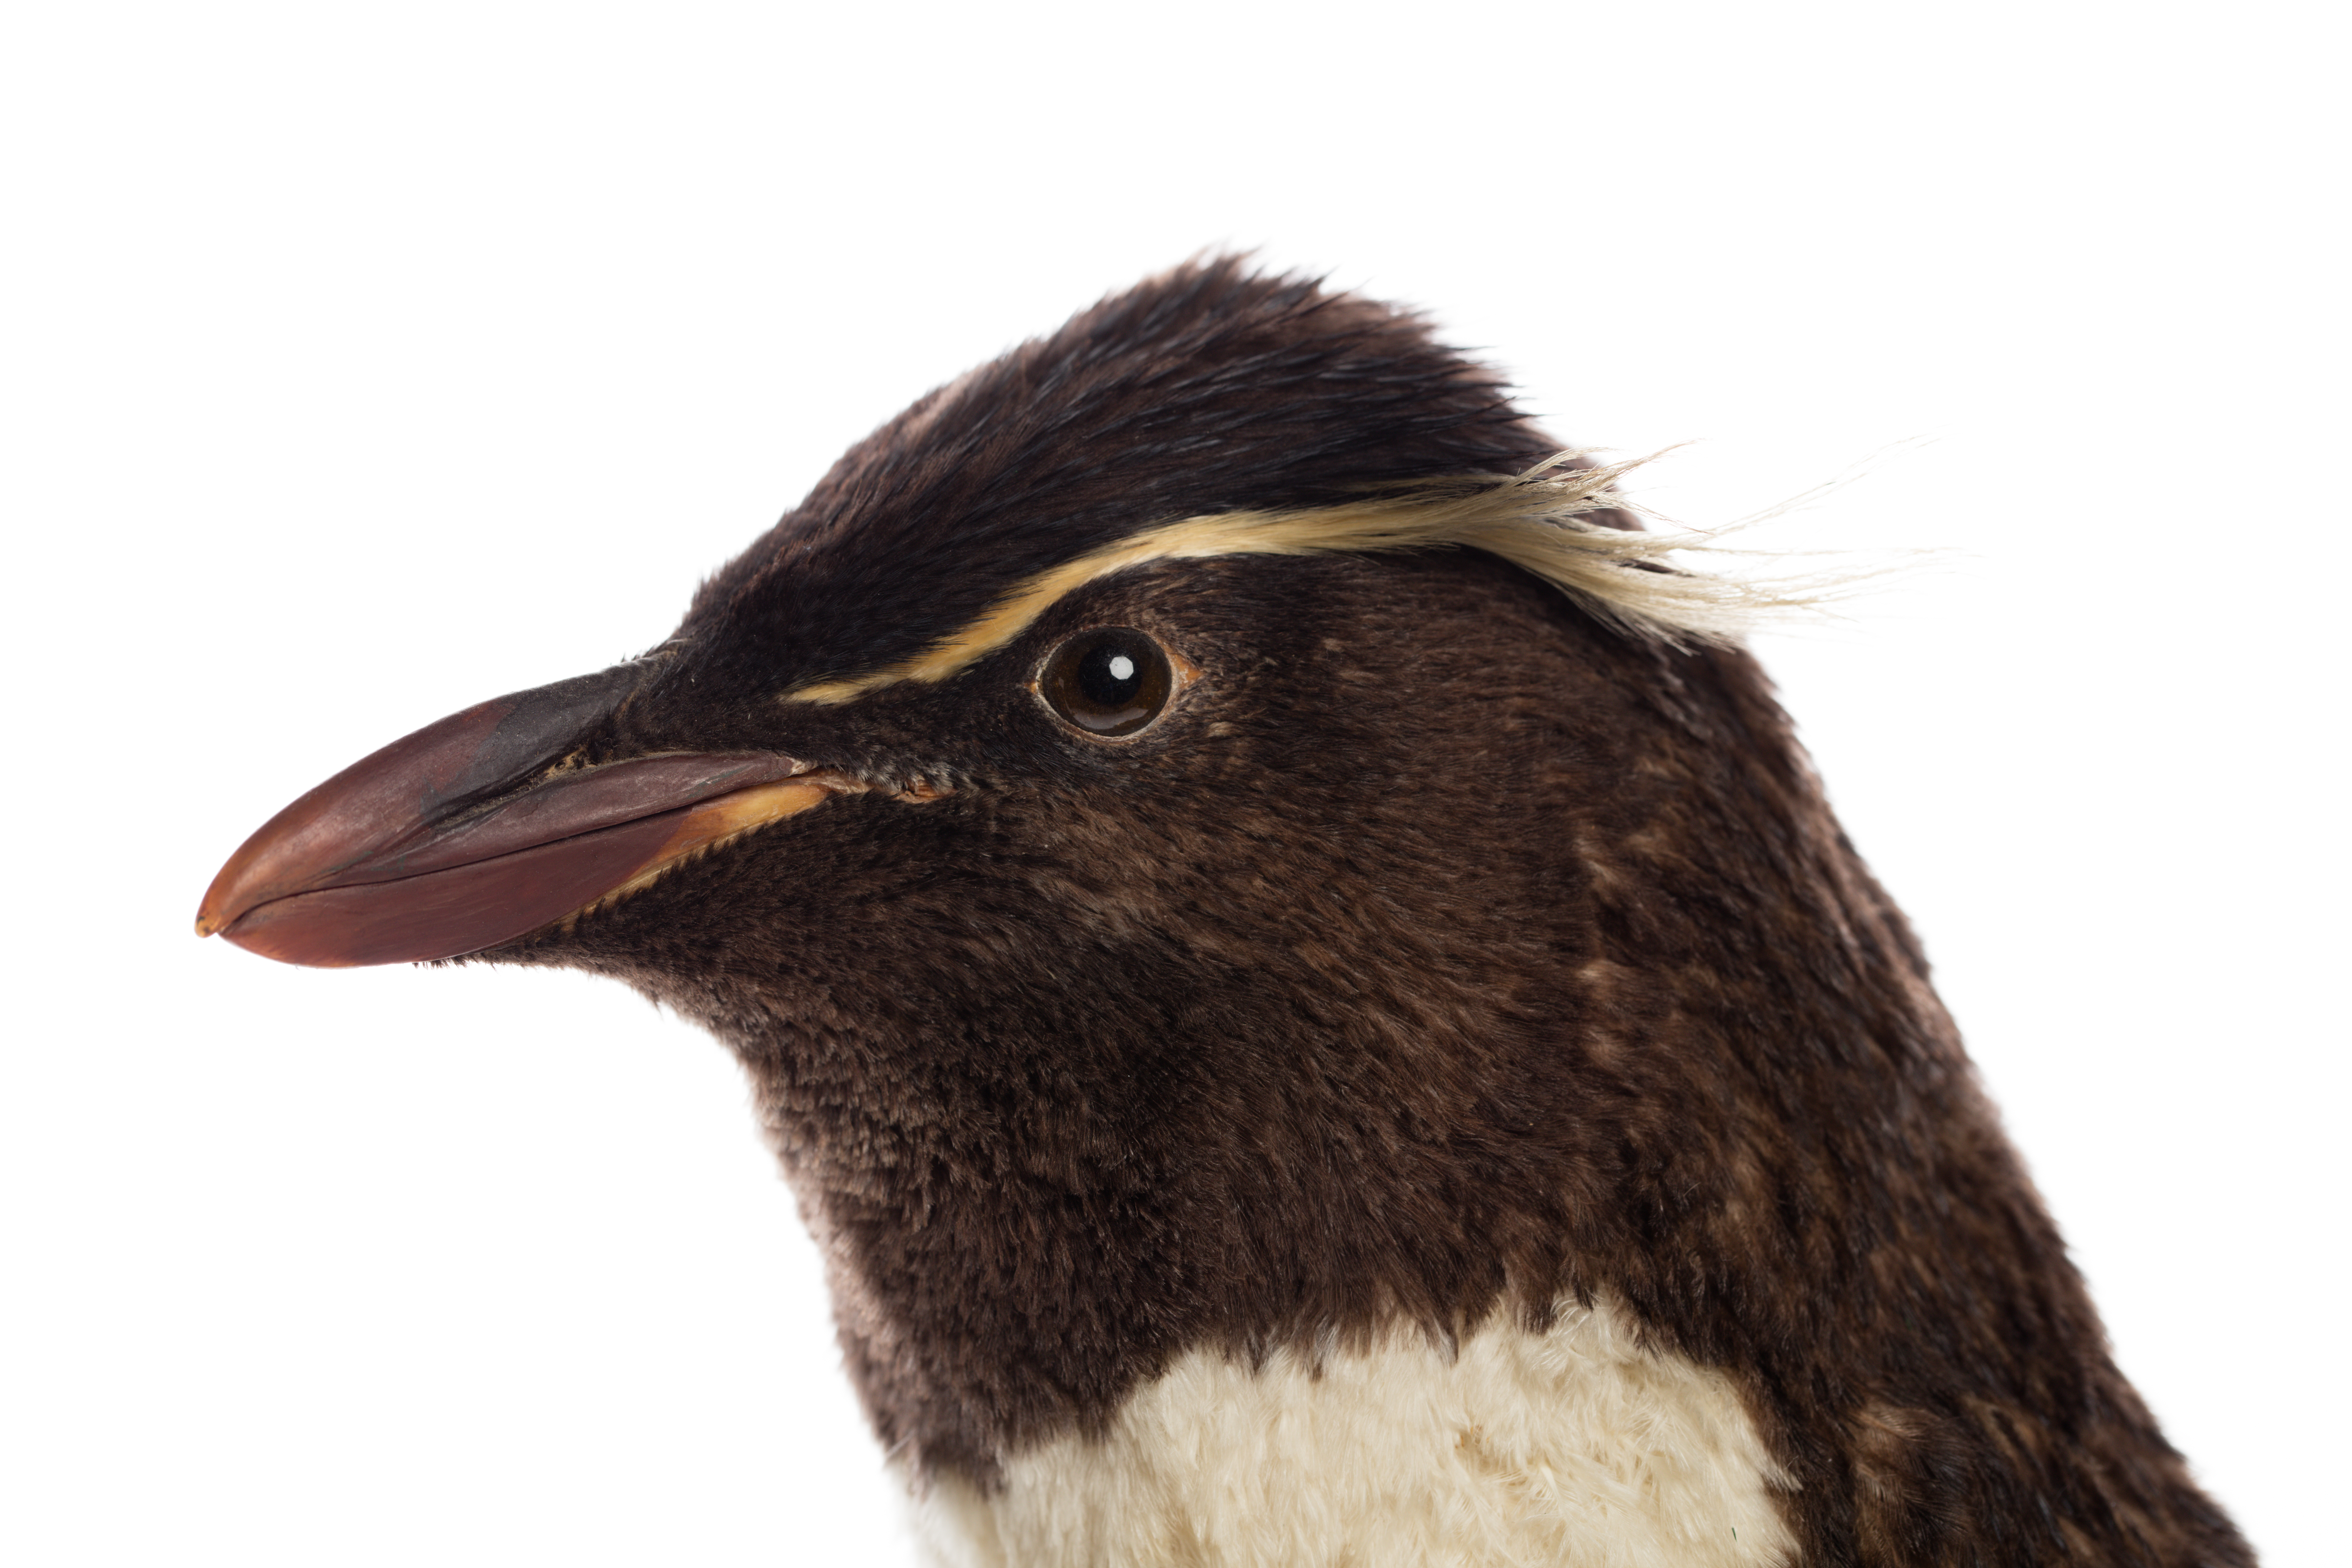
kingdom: Animalia
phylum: Chordata
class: Aves
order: Sphenisciformes
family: Spheniscidae
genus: Eudyptes
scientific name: Eudyptes chrysocome
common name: Southern rockhopper penguin
